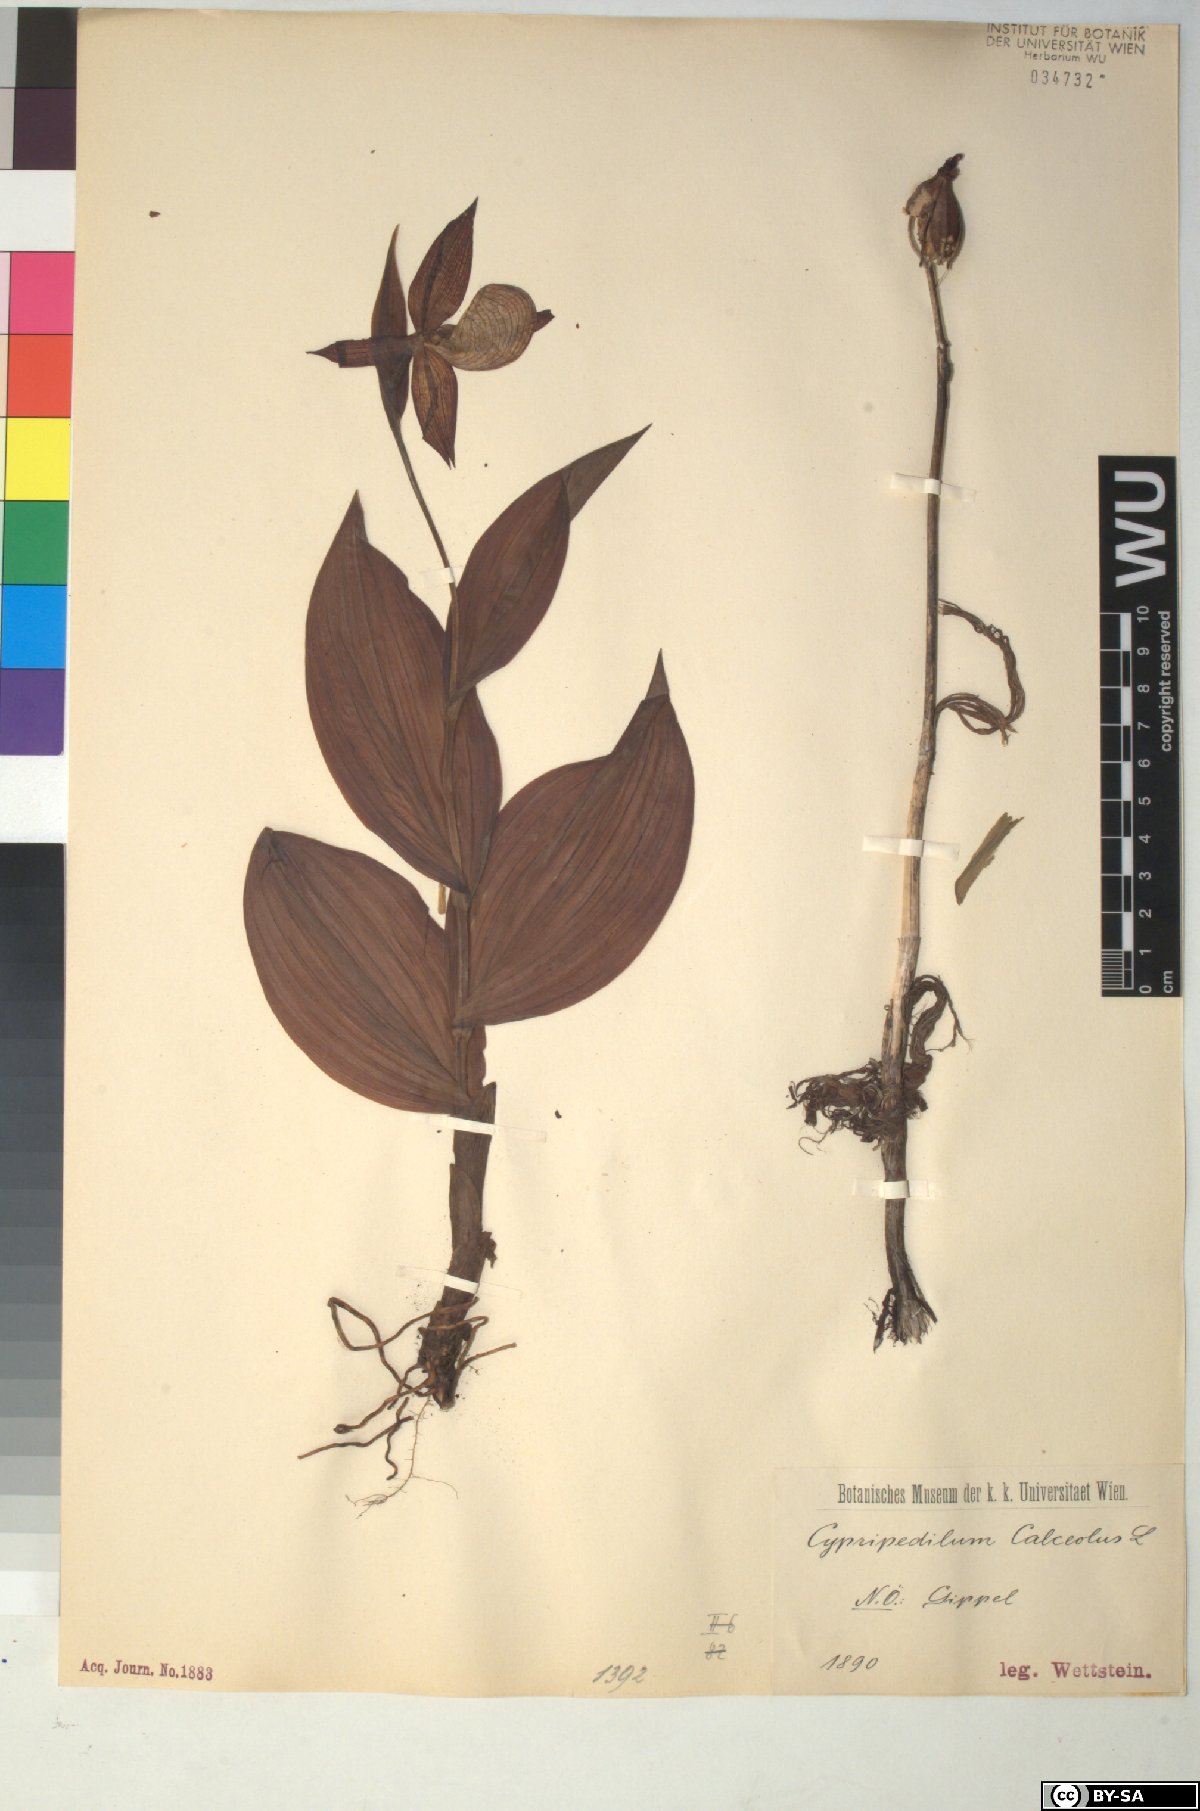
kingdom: Plantae
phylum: Tracheophyta
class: Liliopsida
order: Asparagales
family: Orchidaceae
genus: Cypripedium
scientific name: Cypripedium calceolus
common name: Lady's-slipper
